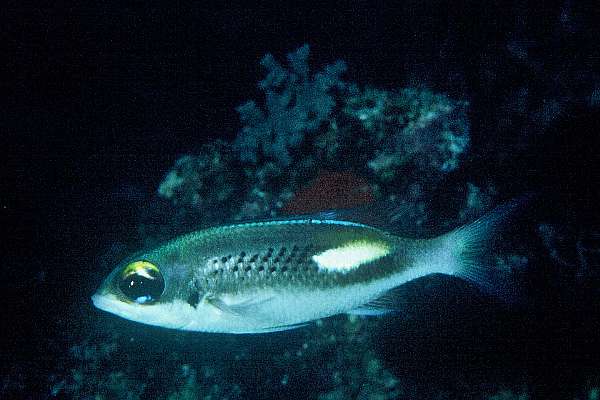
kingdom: Animalia
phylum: Chordata
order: Perciformes
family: Nemipteridae
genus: Scolopsis
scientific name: Scolopsis xenochrous
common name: Oblique-barred monocle bream
